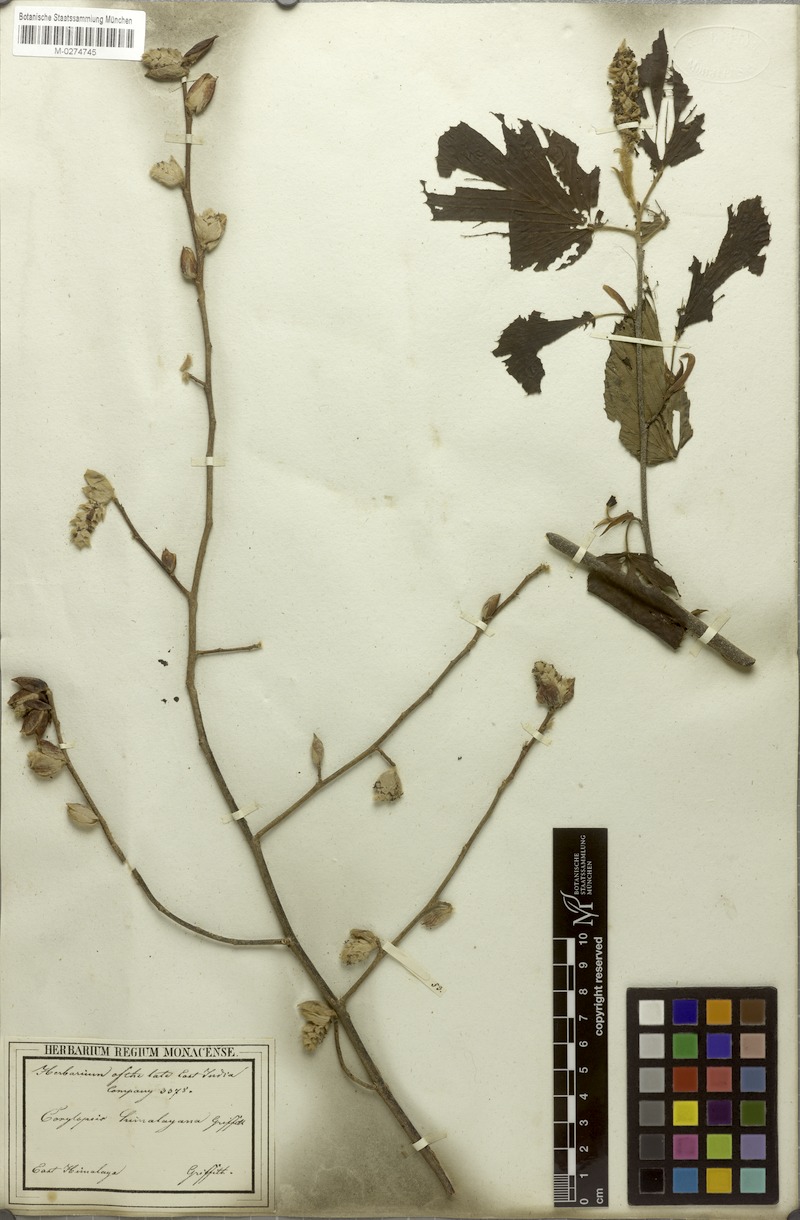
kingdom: Plantae
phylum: Tracheophyta
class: Magnoliopsida
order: Saxifragales
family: Hamamelidaceae
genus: Corylopsis
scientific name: Corylopsis himalayana
